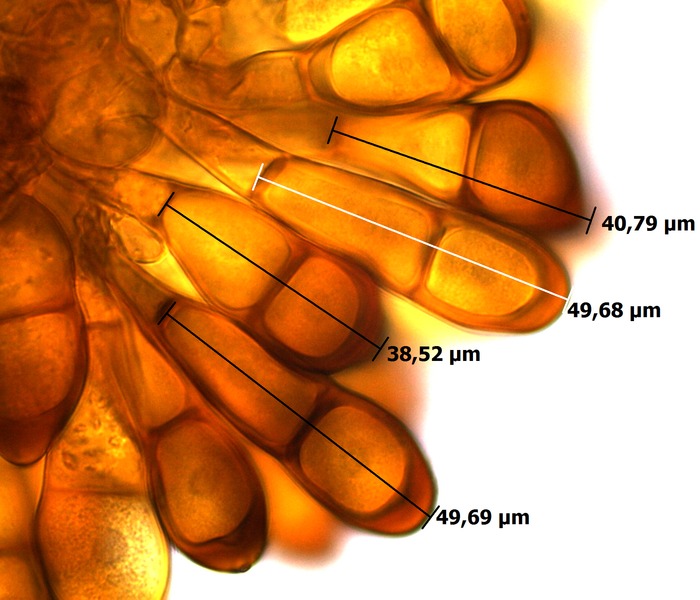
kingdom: Fungi
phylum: Basidiomycota
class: Pucciniomycetes
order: Pucciniales
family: Pucciniaceae
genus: Puccinia
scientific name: Puccinia magnusiana
